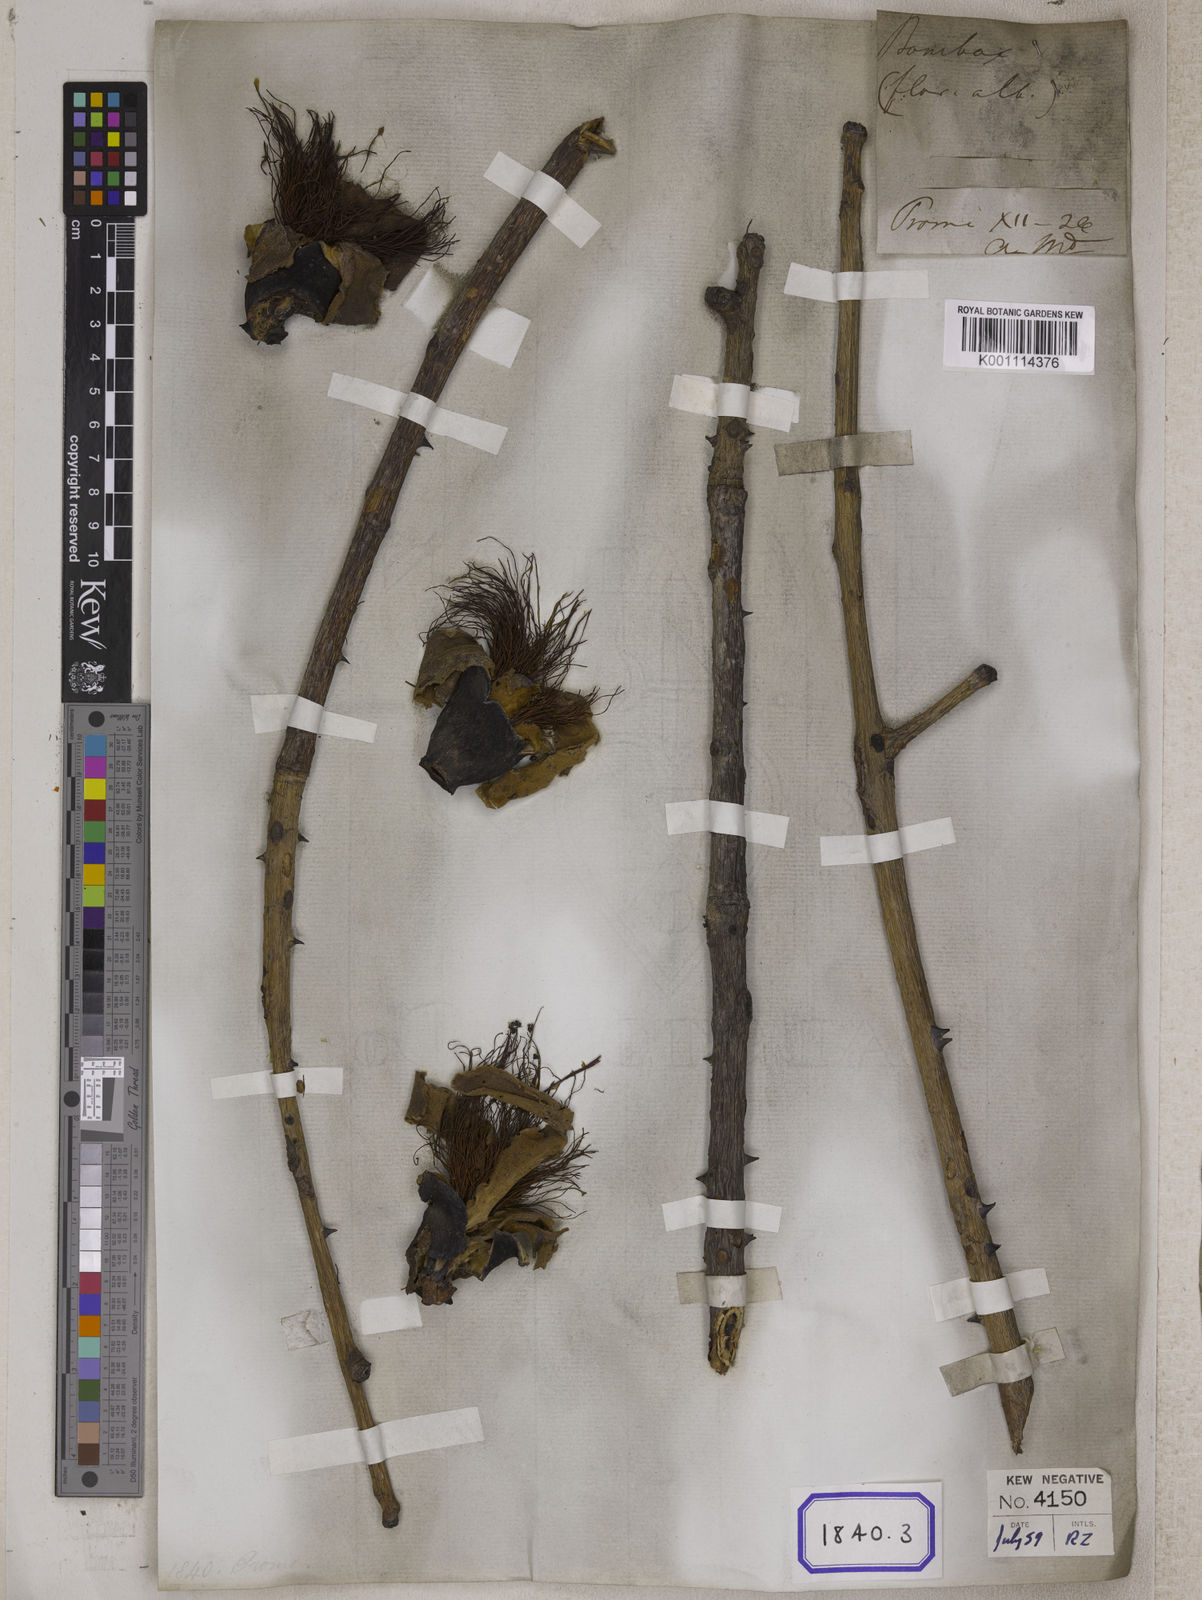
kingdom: Plantae
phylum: Tracheophyta
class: Magnoliopsida
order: Malvales
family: Malvaceae
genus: Bombax
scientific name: Bombax
